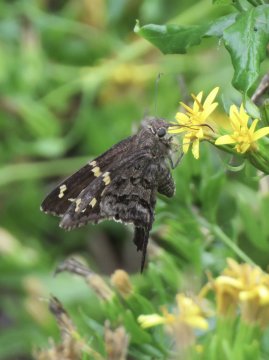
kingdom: Animalia
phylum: Arthropoda
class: Insecta
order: Lepidoptera
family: Hesperiidae
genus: Urbanus
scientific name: Urbanus dorantes
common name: Dorantes Longtail
